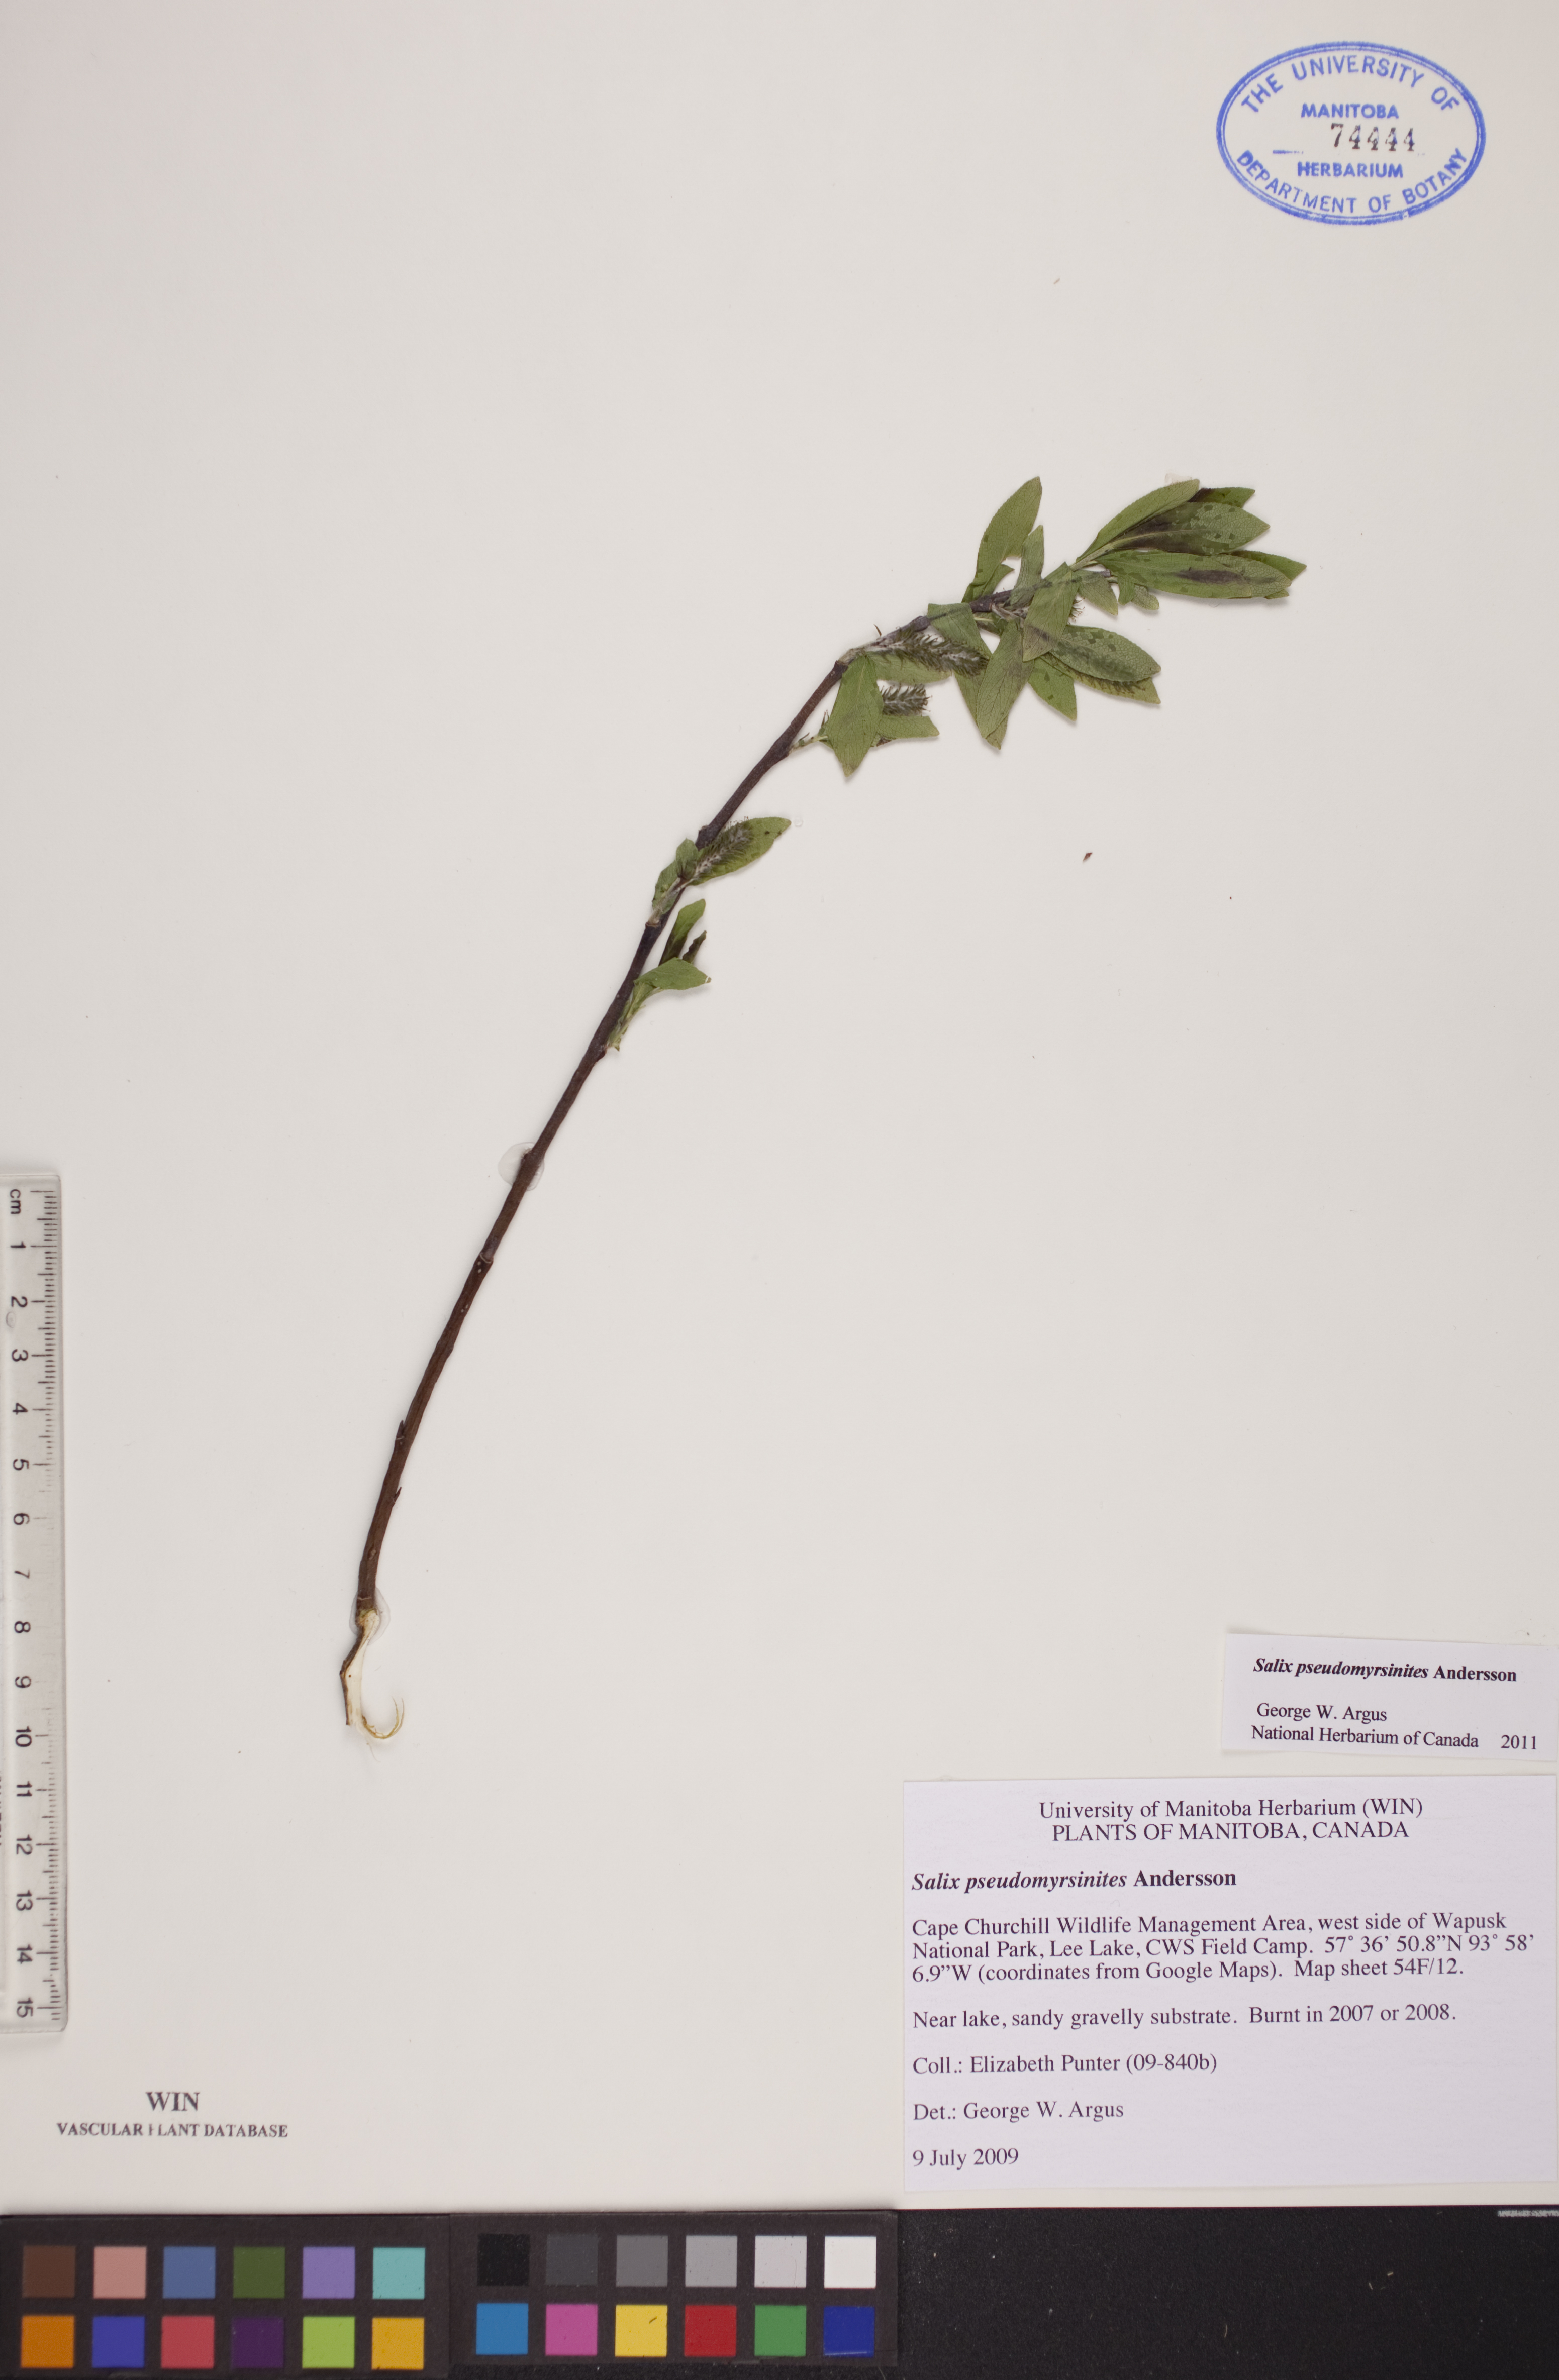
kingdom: Plantae
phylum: Tracheophyta
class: Magnoliopsida
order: Malpighiales
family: Salicaceae
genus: Salix
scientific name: Salix pseudomyrsinites
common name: Tall blueberry willow
